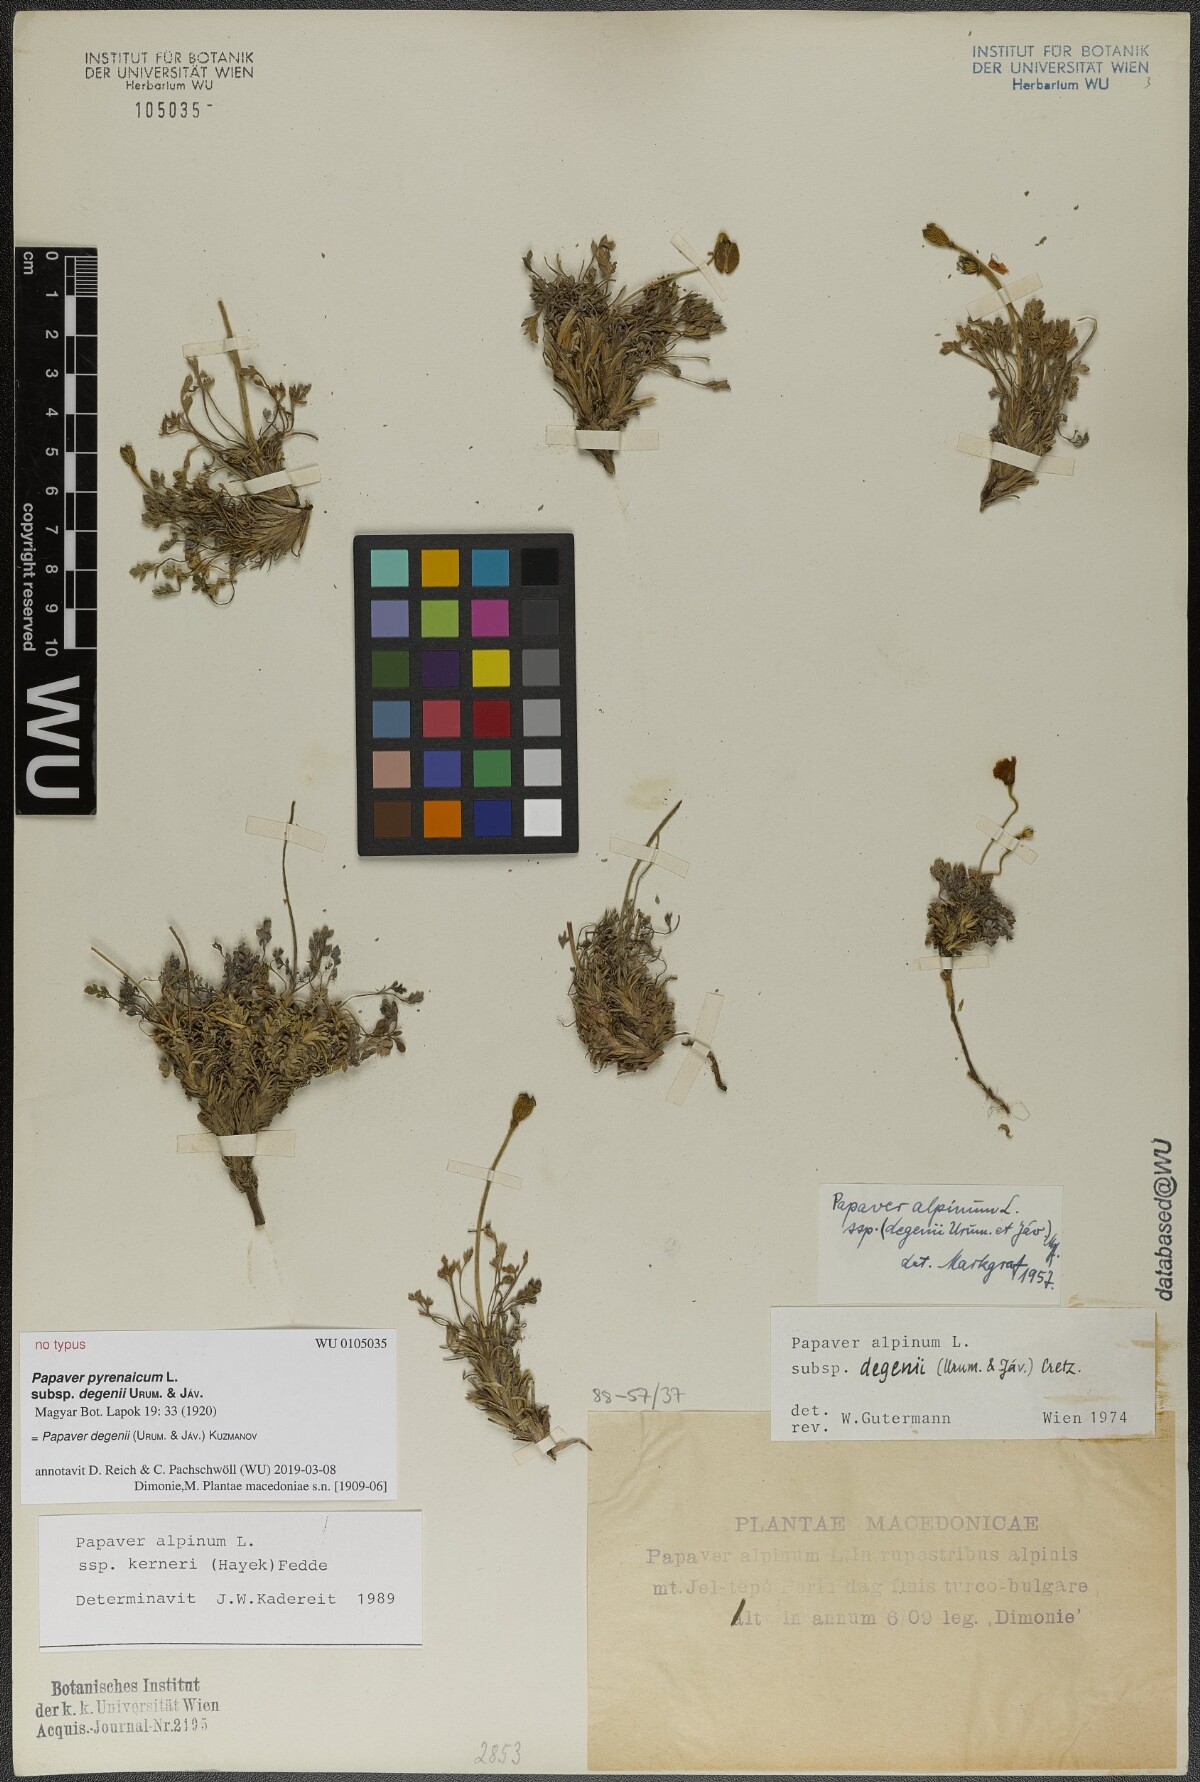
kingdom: Plantae
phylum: Tracheophyta
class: Magnoliopsida
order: Ranunculales
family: Papaveraceae
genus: Papaver
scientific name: Papaver alpinum
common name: Austrian poppy
